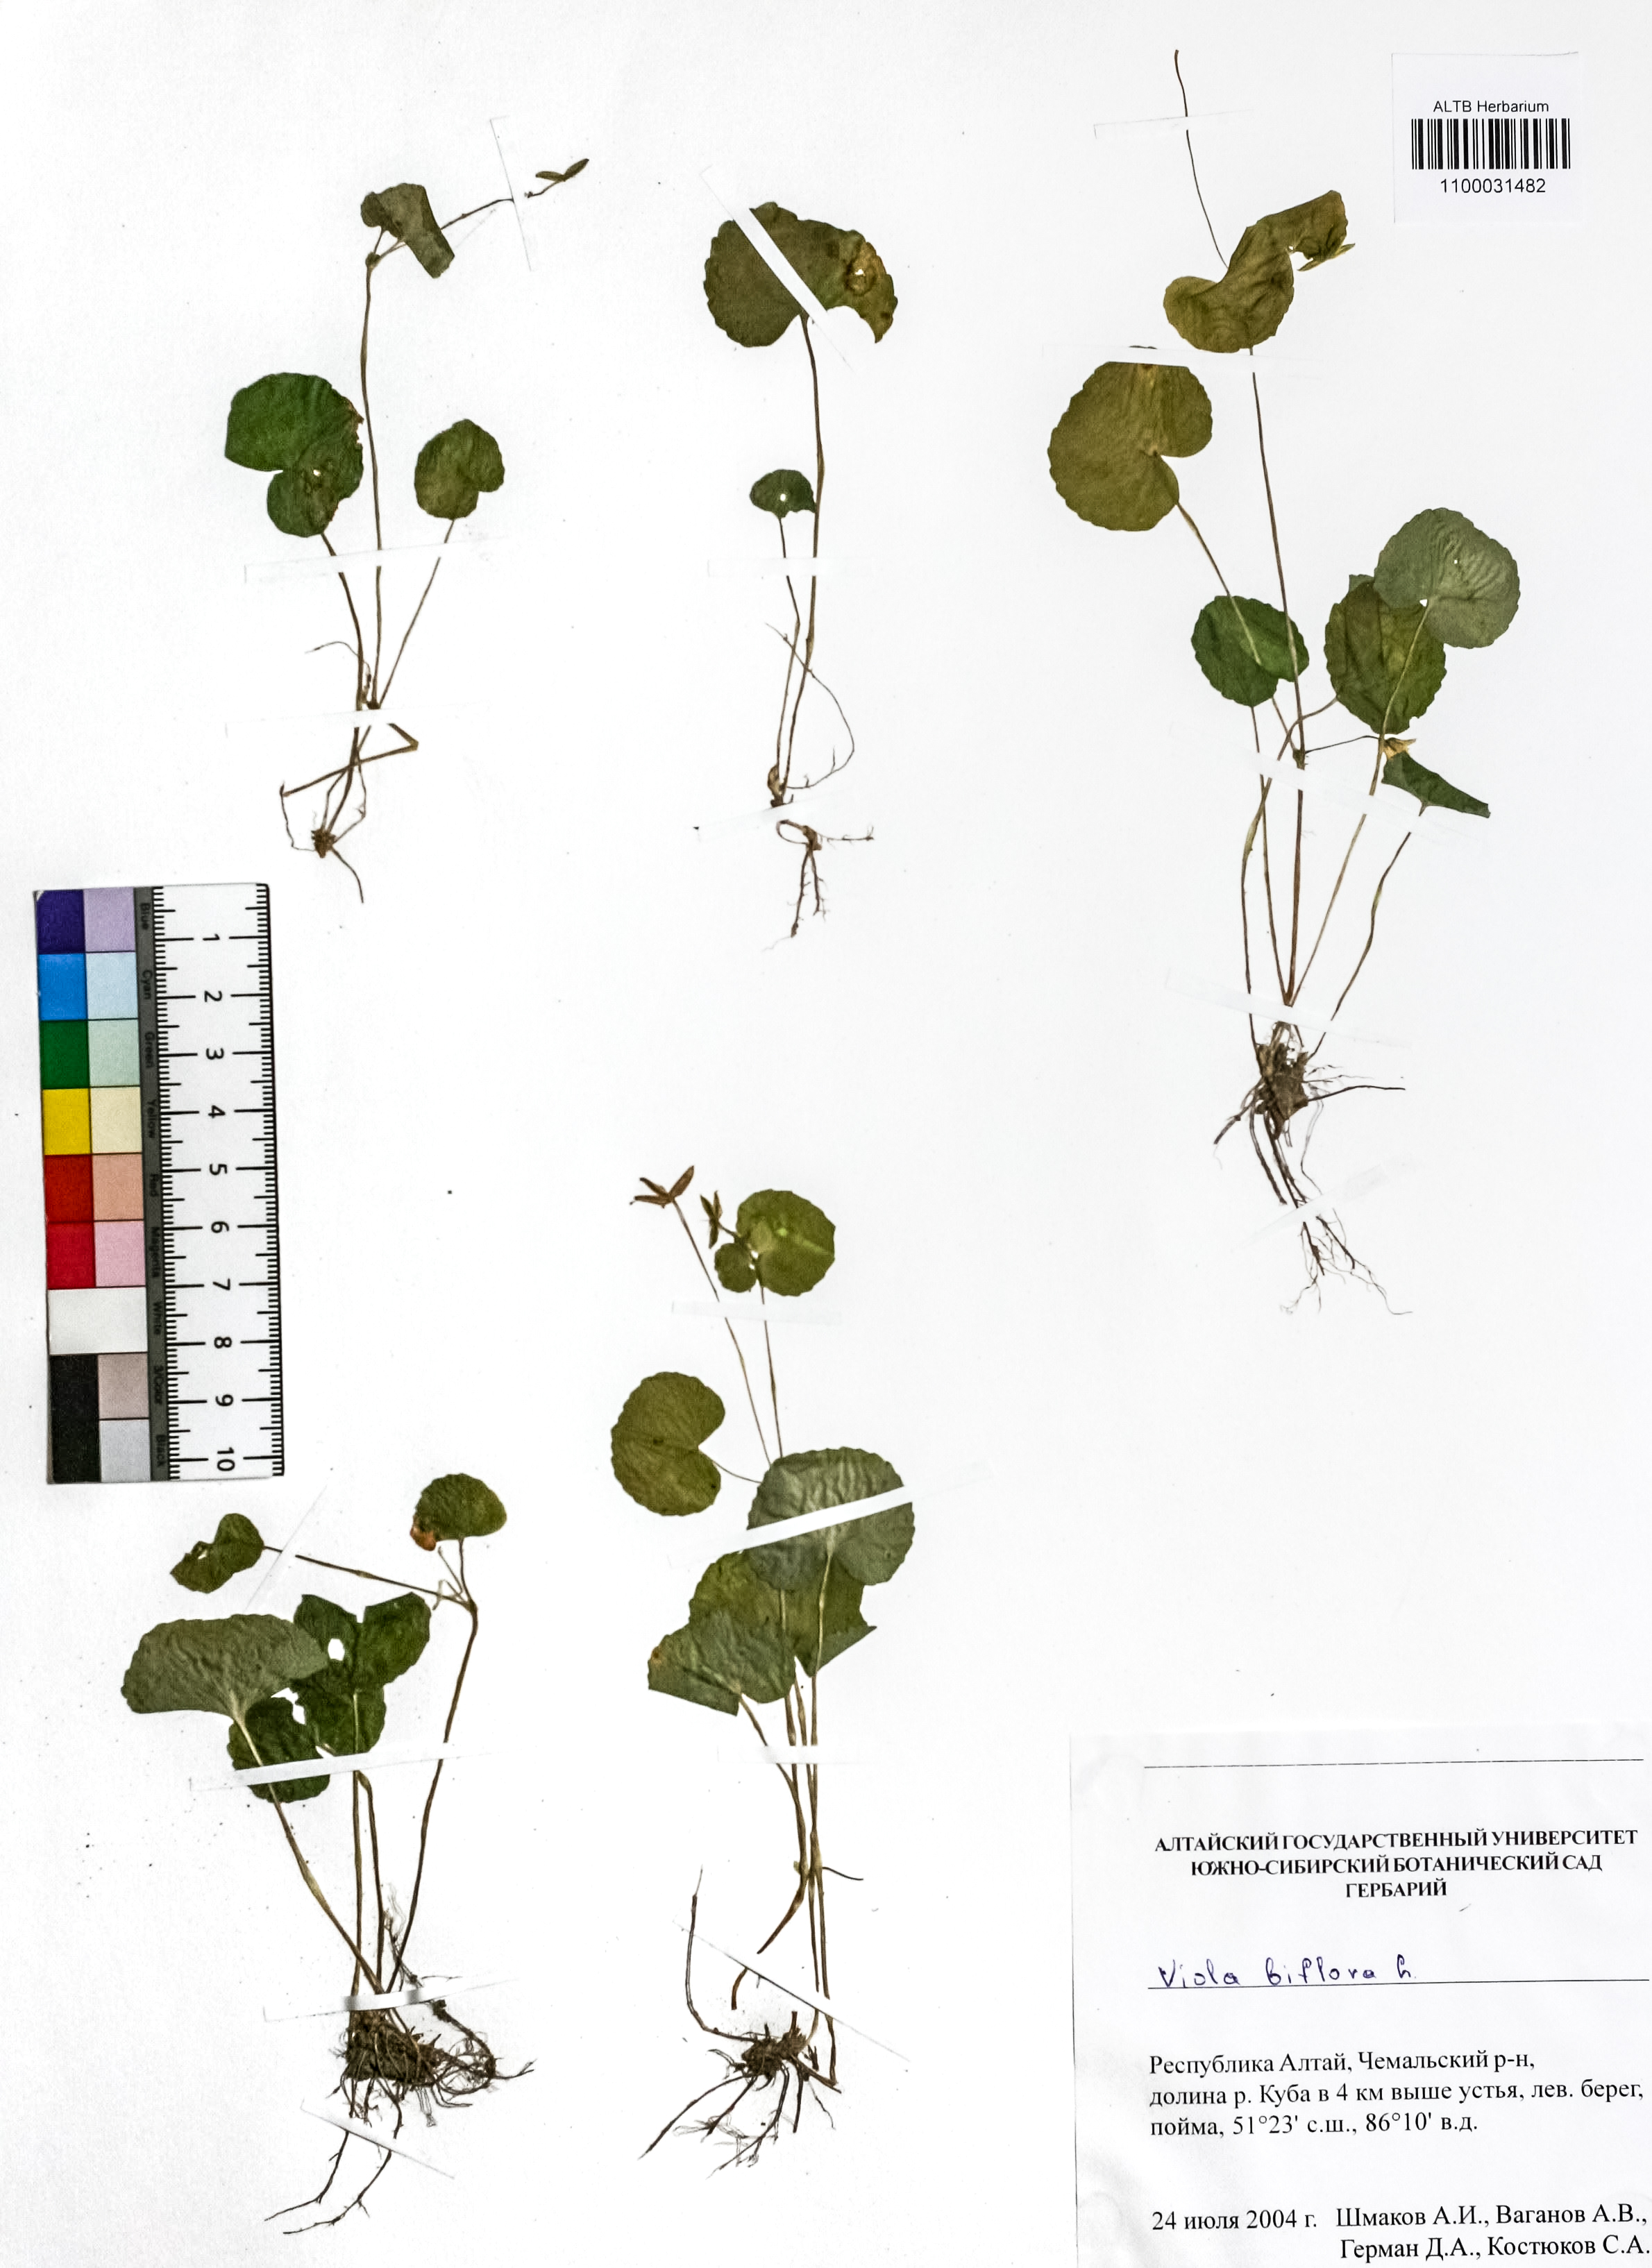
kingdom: Plantae
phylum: Tracheophyta
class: Magnoliopsida
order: Malpighiales
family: Violaceae
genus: Viola
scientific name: Viola biflora
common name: Alpine yellow violet
